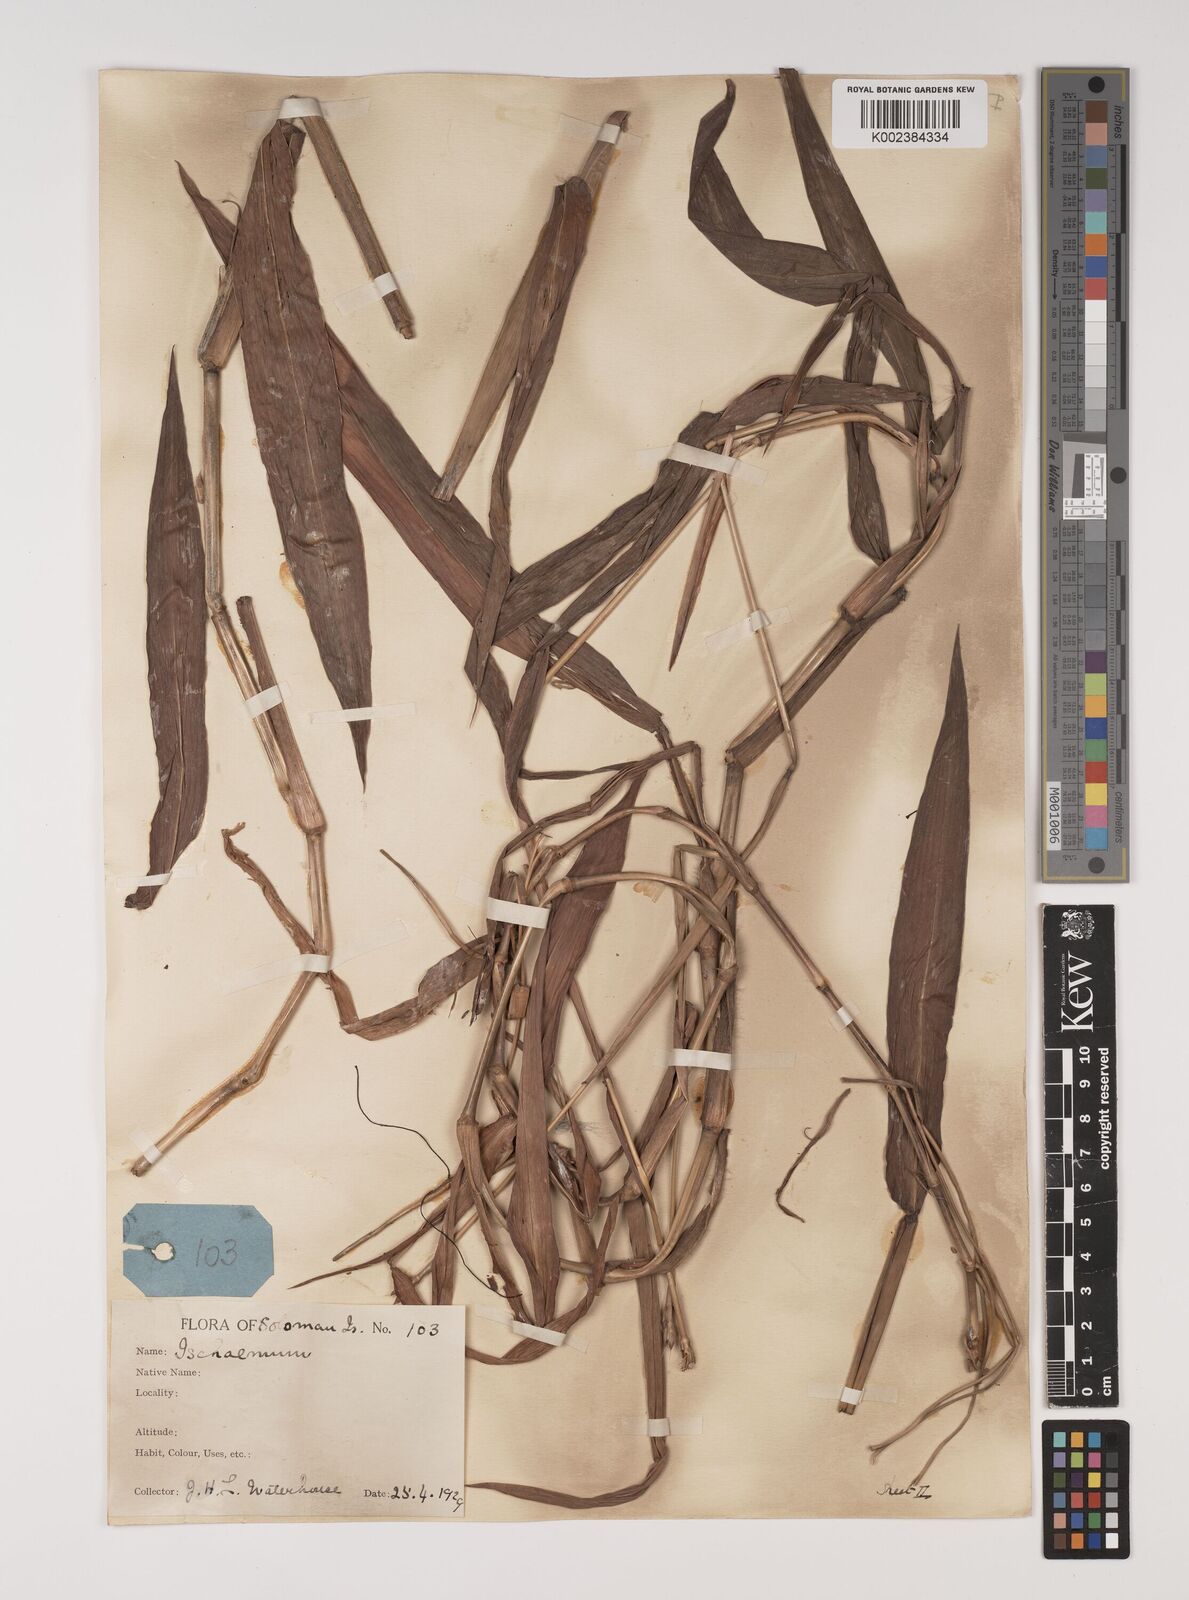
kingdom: Plantae
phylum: Tracheophyta
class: Liliopsida
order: Poales
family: Poaceae
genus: Ischaemum
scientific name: Ischaemum muticum
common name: Drought grass
